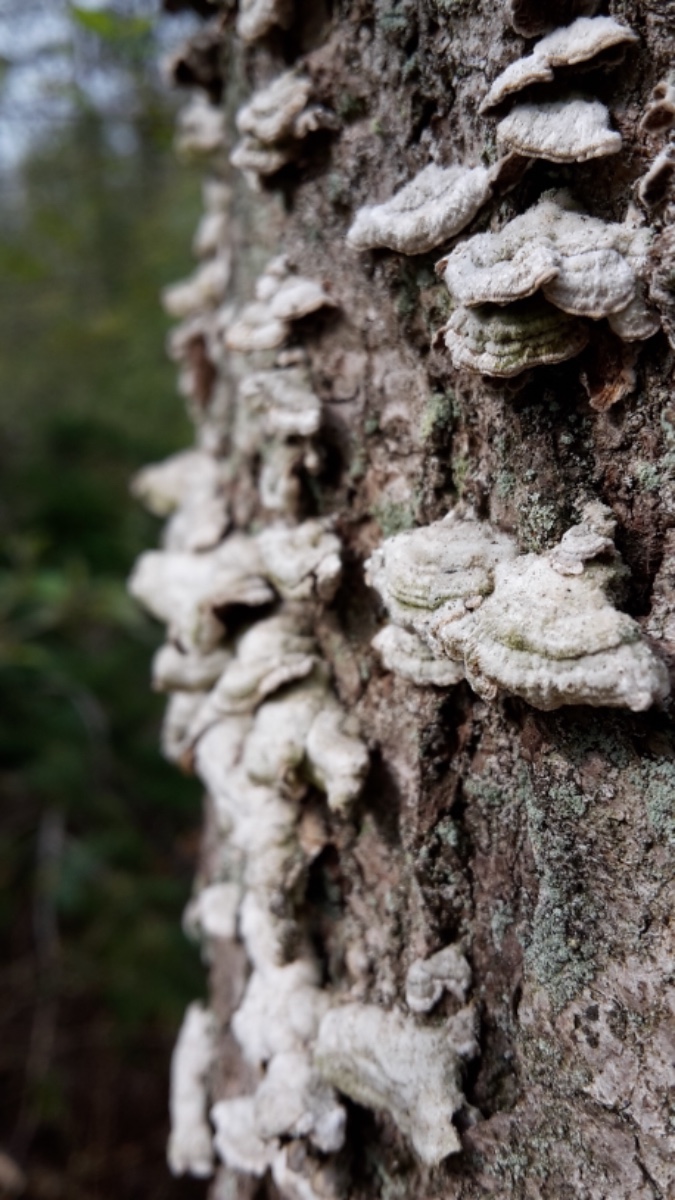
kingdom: Fungi
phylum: Basidiomycota
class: Agaricomycetes
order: Hymenochaetales
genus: Trichaptum
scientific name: Trichaptum abietinum
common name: almindelig violporesvamp
